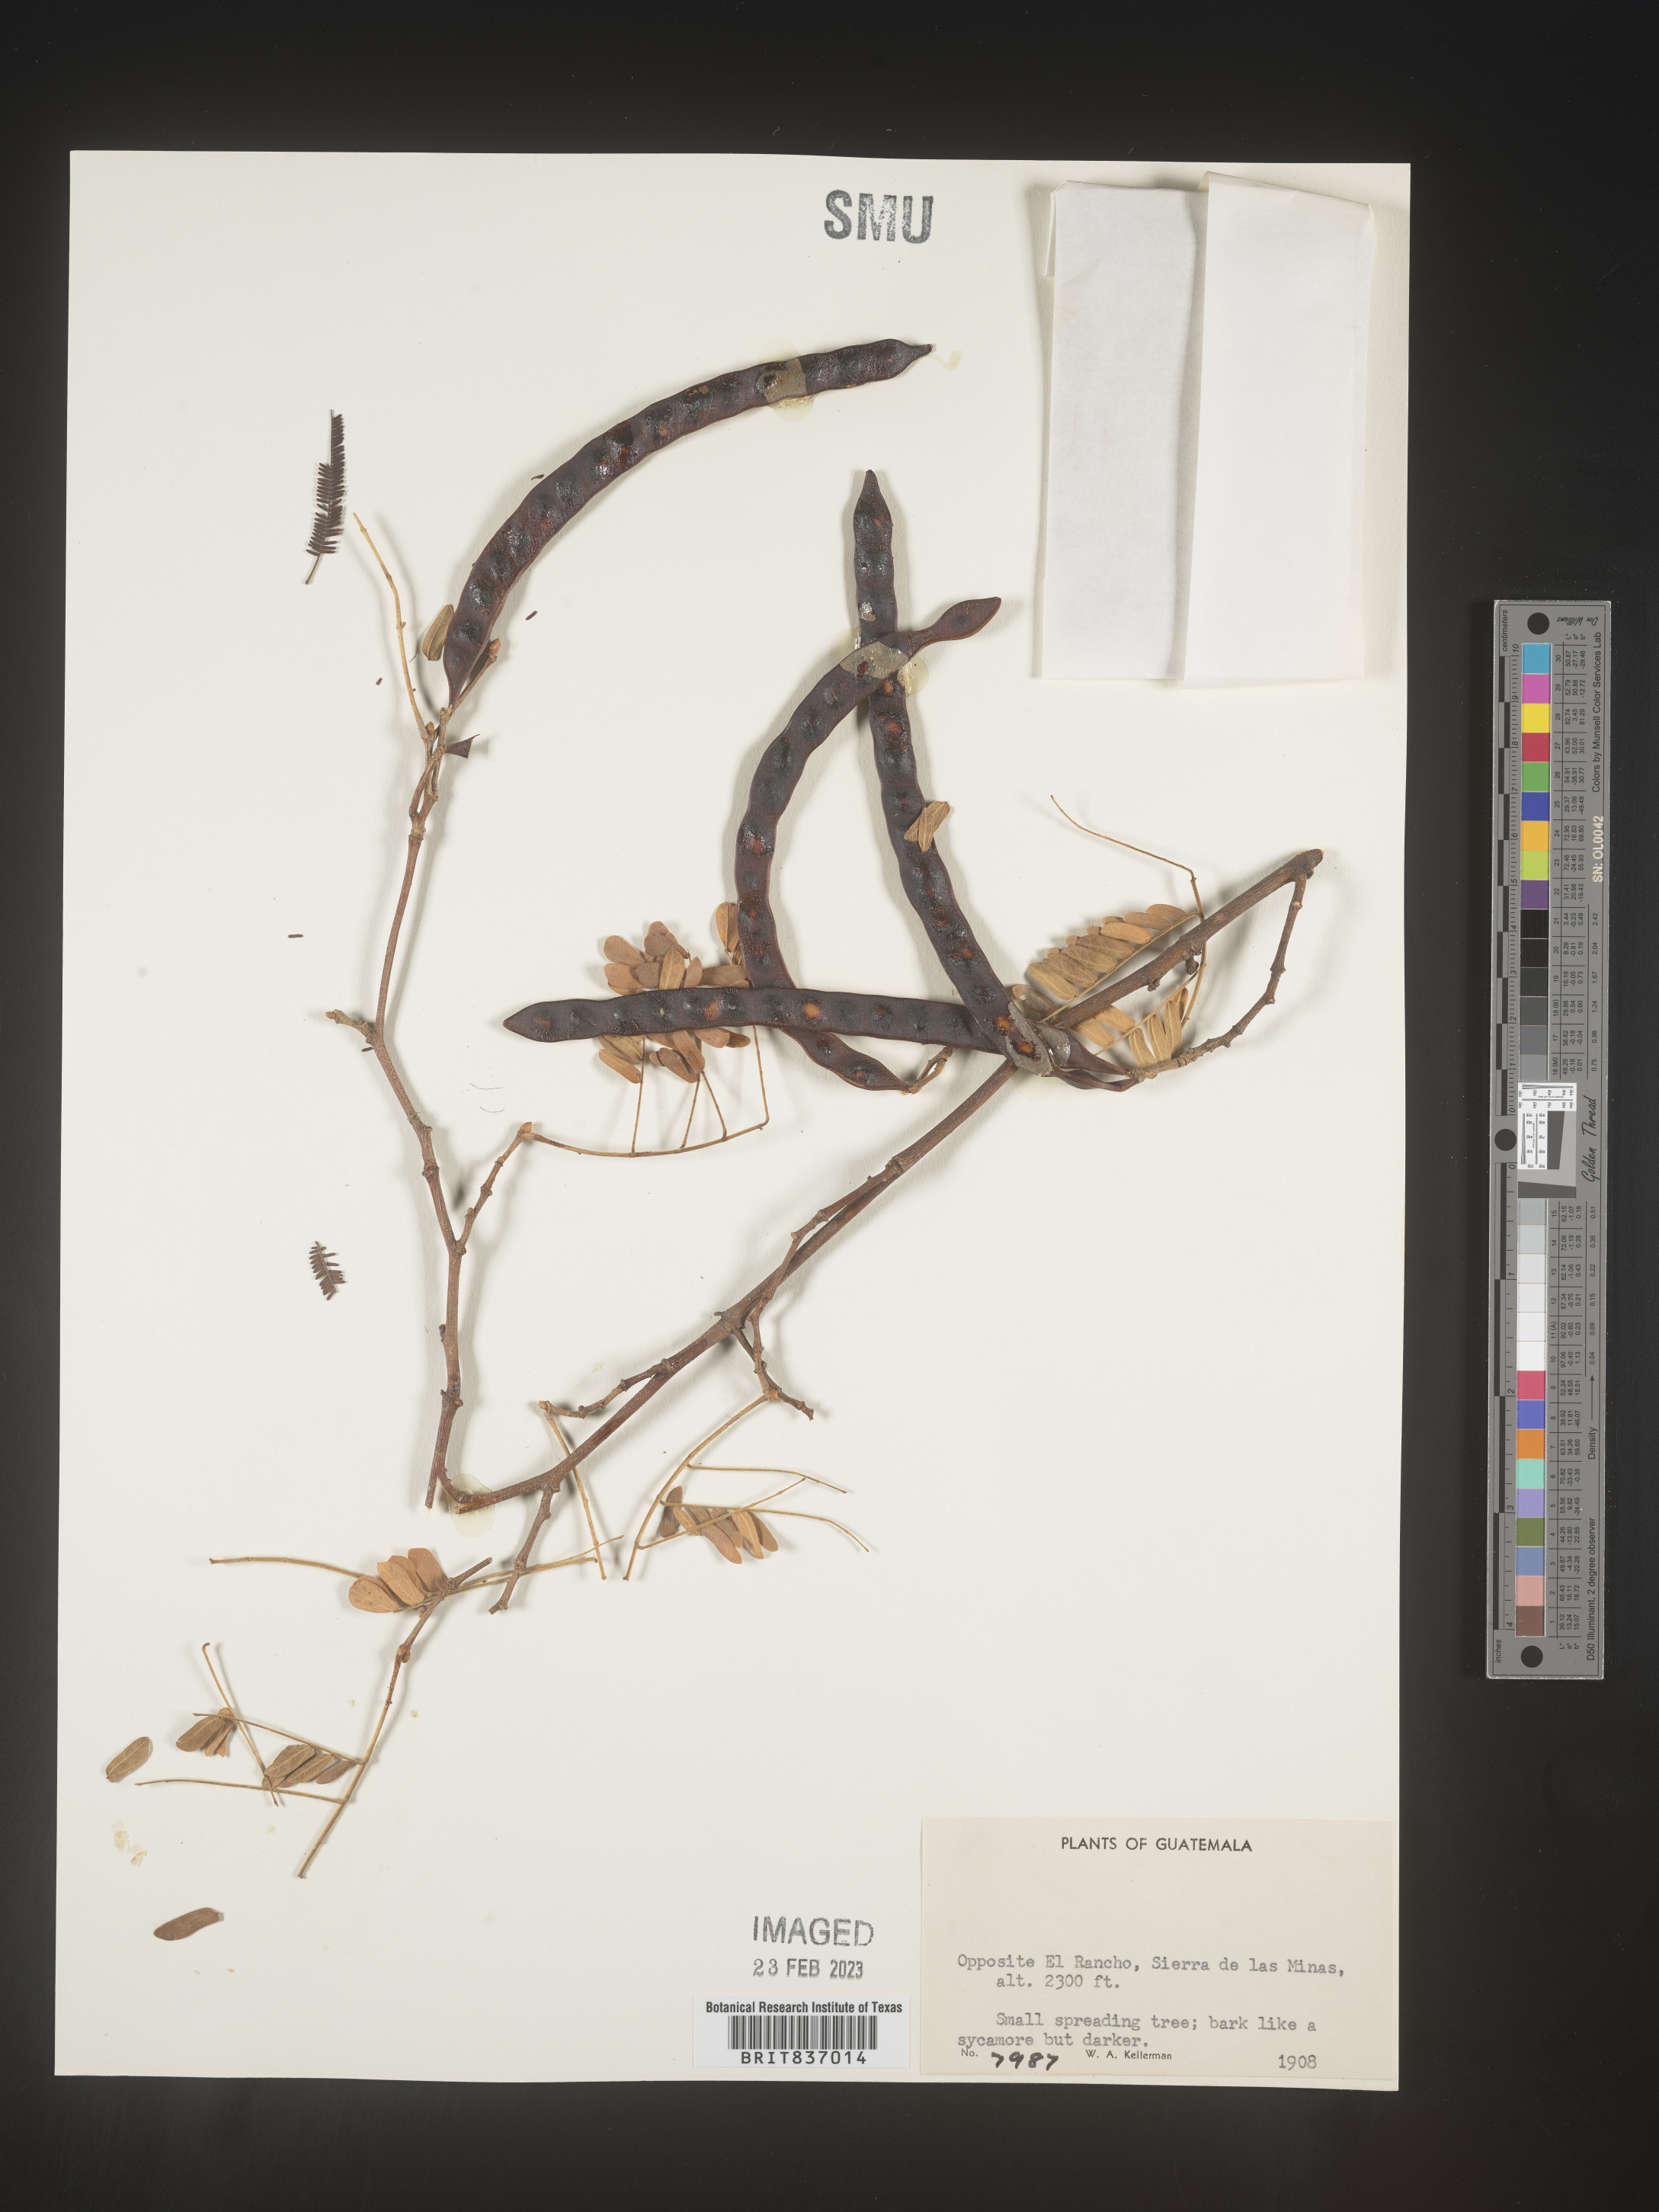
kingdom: Plantae
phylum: Tracheophyta
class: Magnoliopsida
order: Fabales
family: Fabaceae
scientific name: Fabaceae
